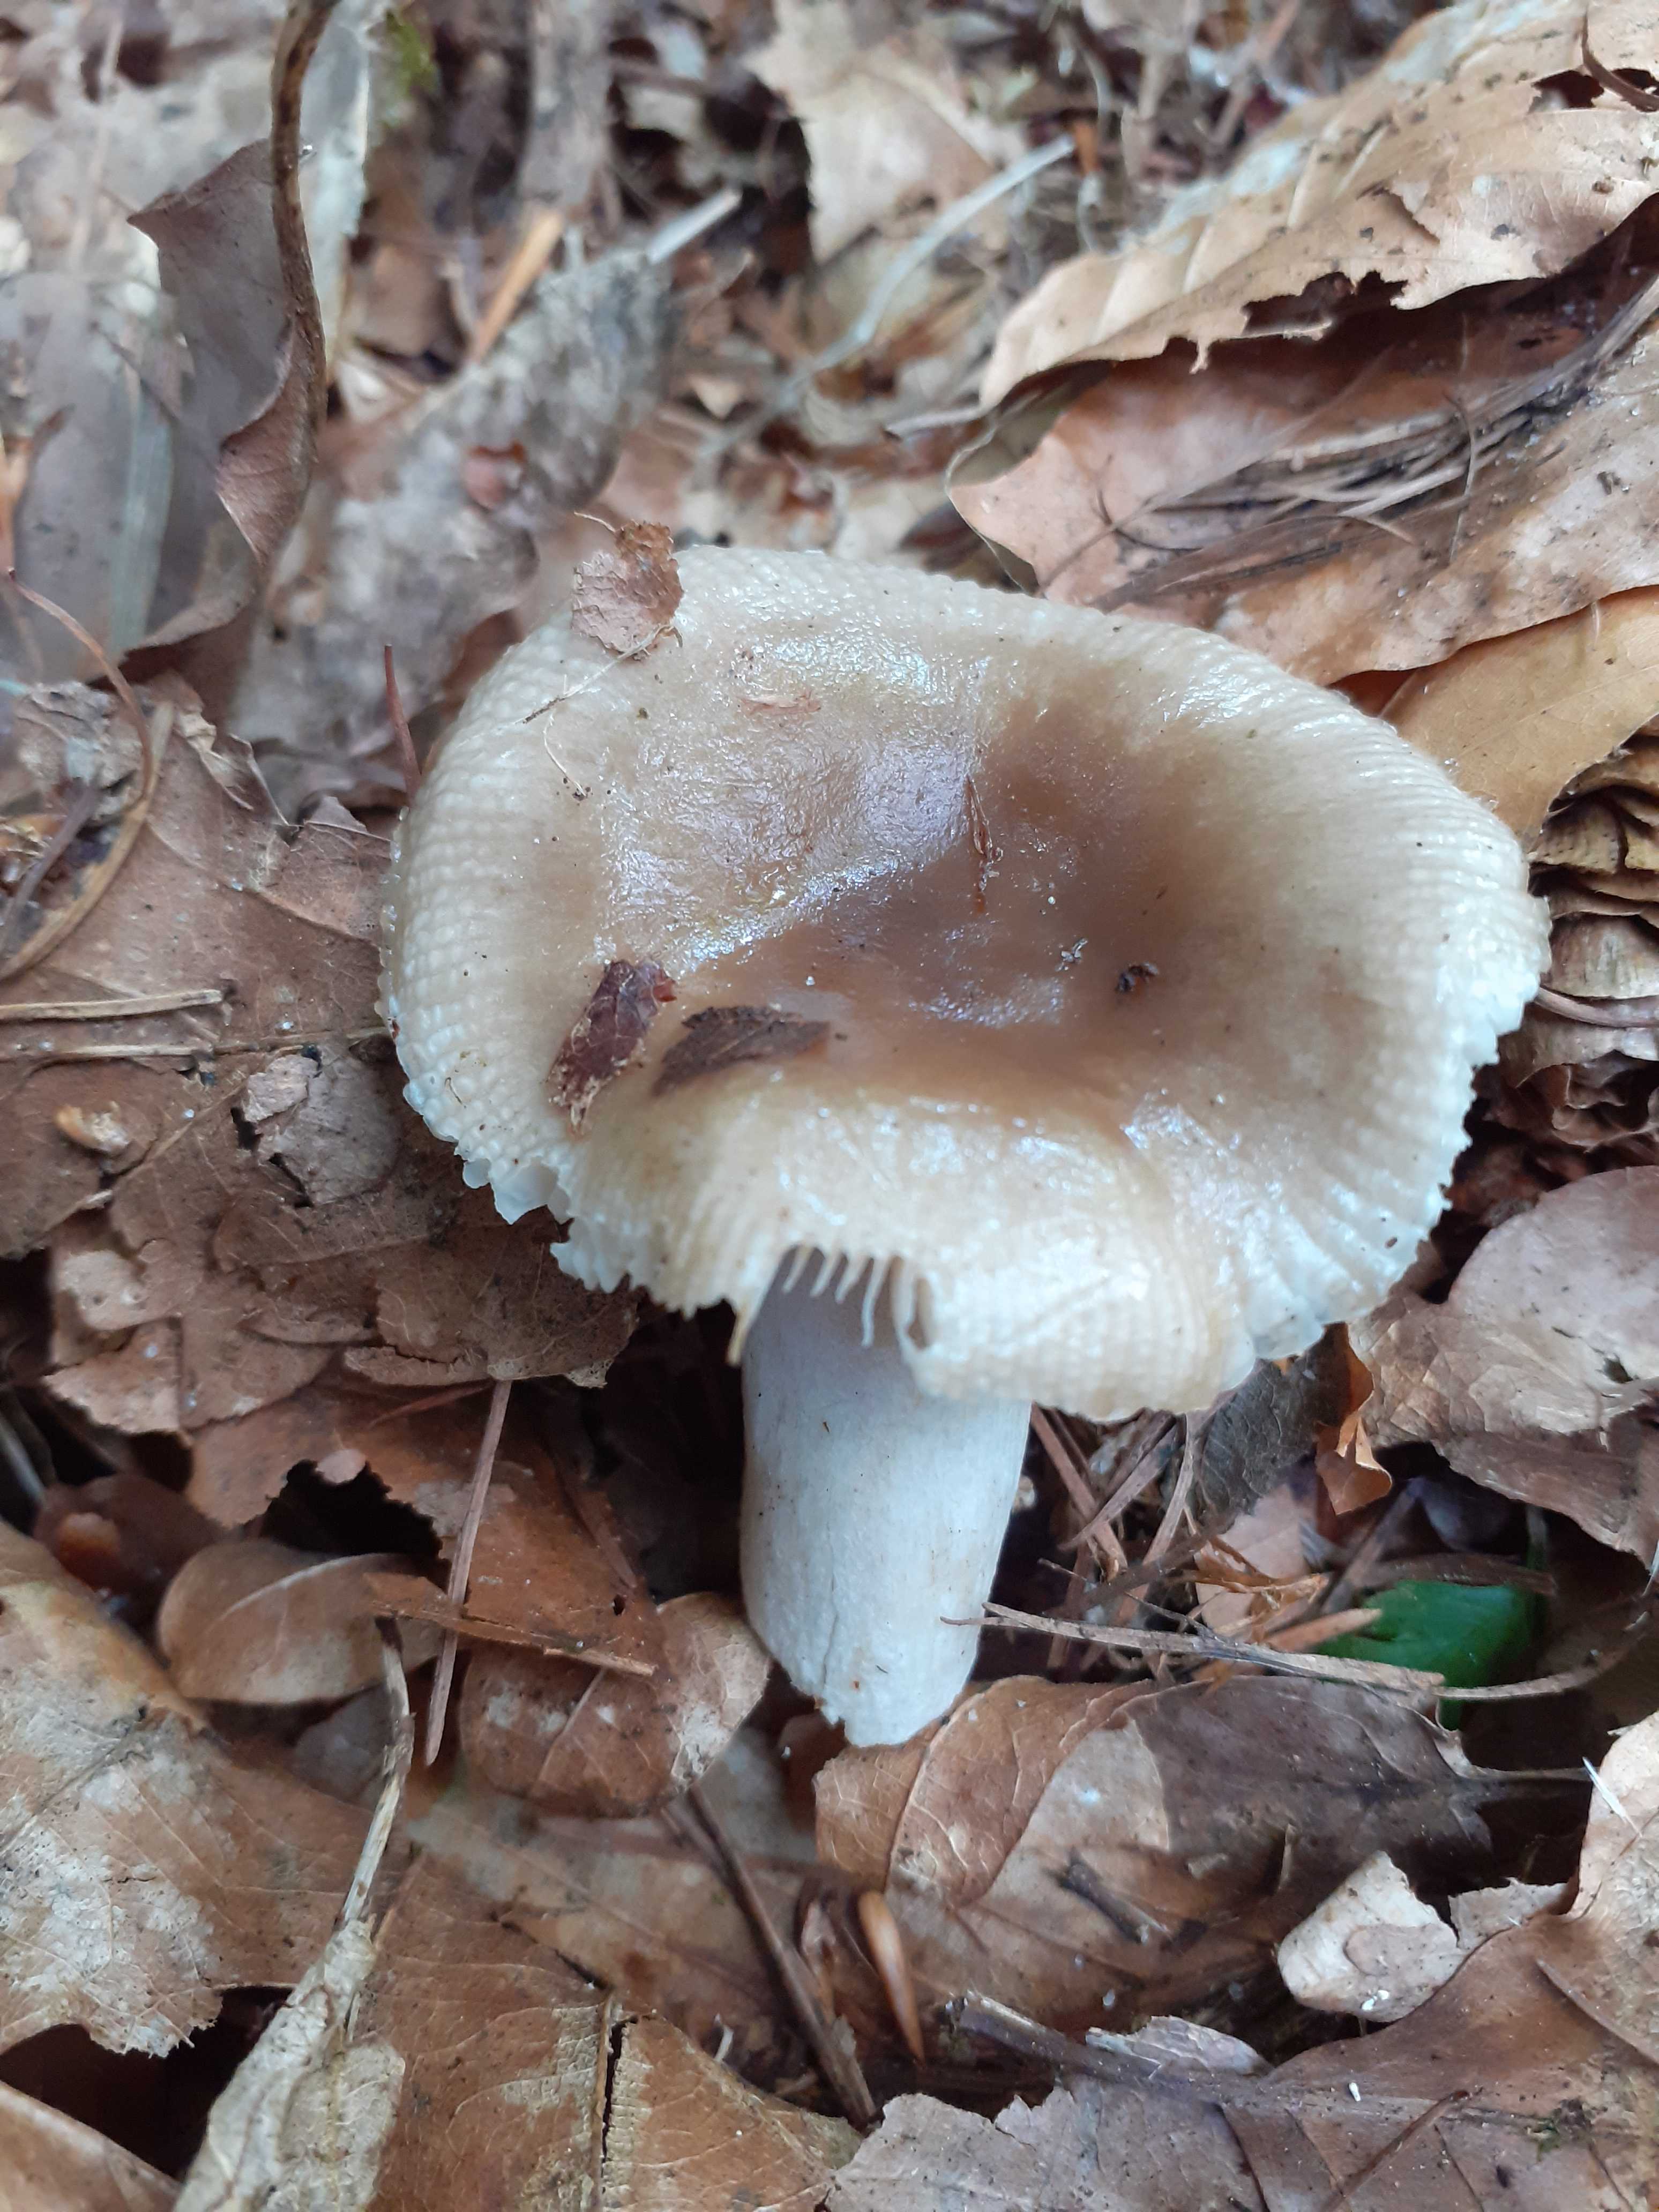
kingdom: Fungi
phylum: Basidiomycota
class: Agaricomycetes
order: Russulales
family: Russulaceae
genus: Russula
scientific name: Russula amoenolens
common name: skarp kam-skørhat
